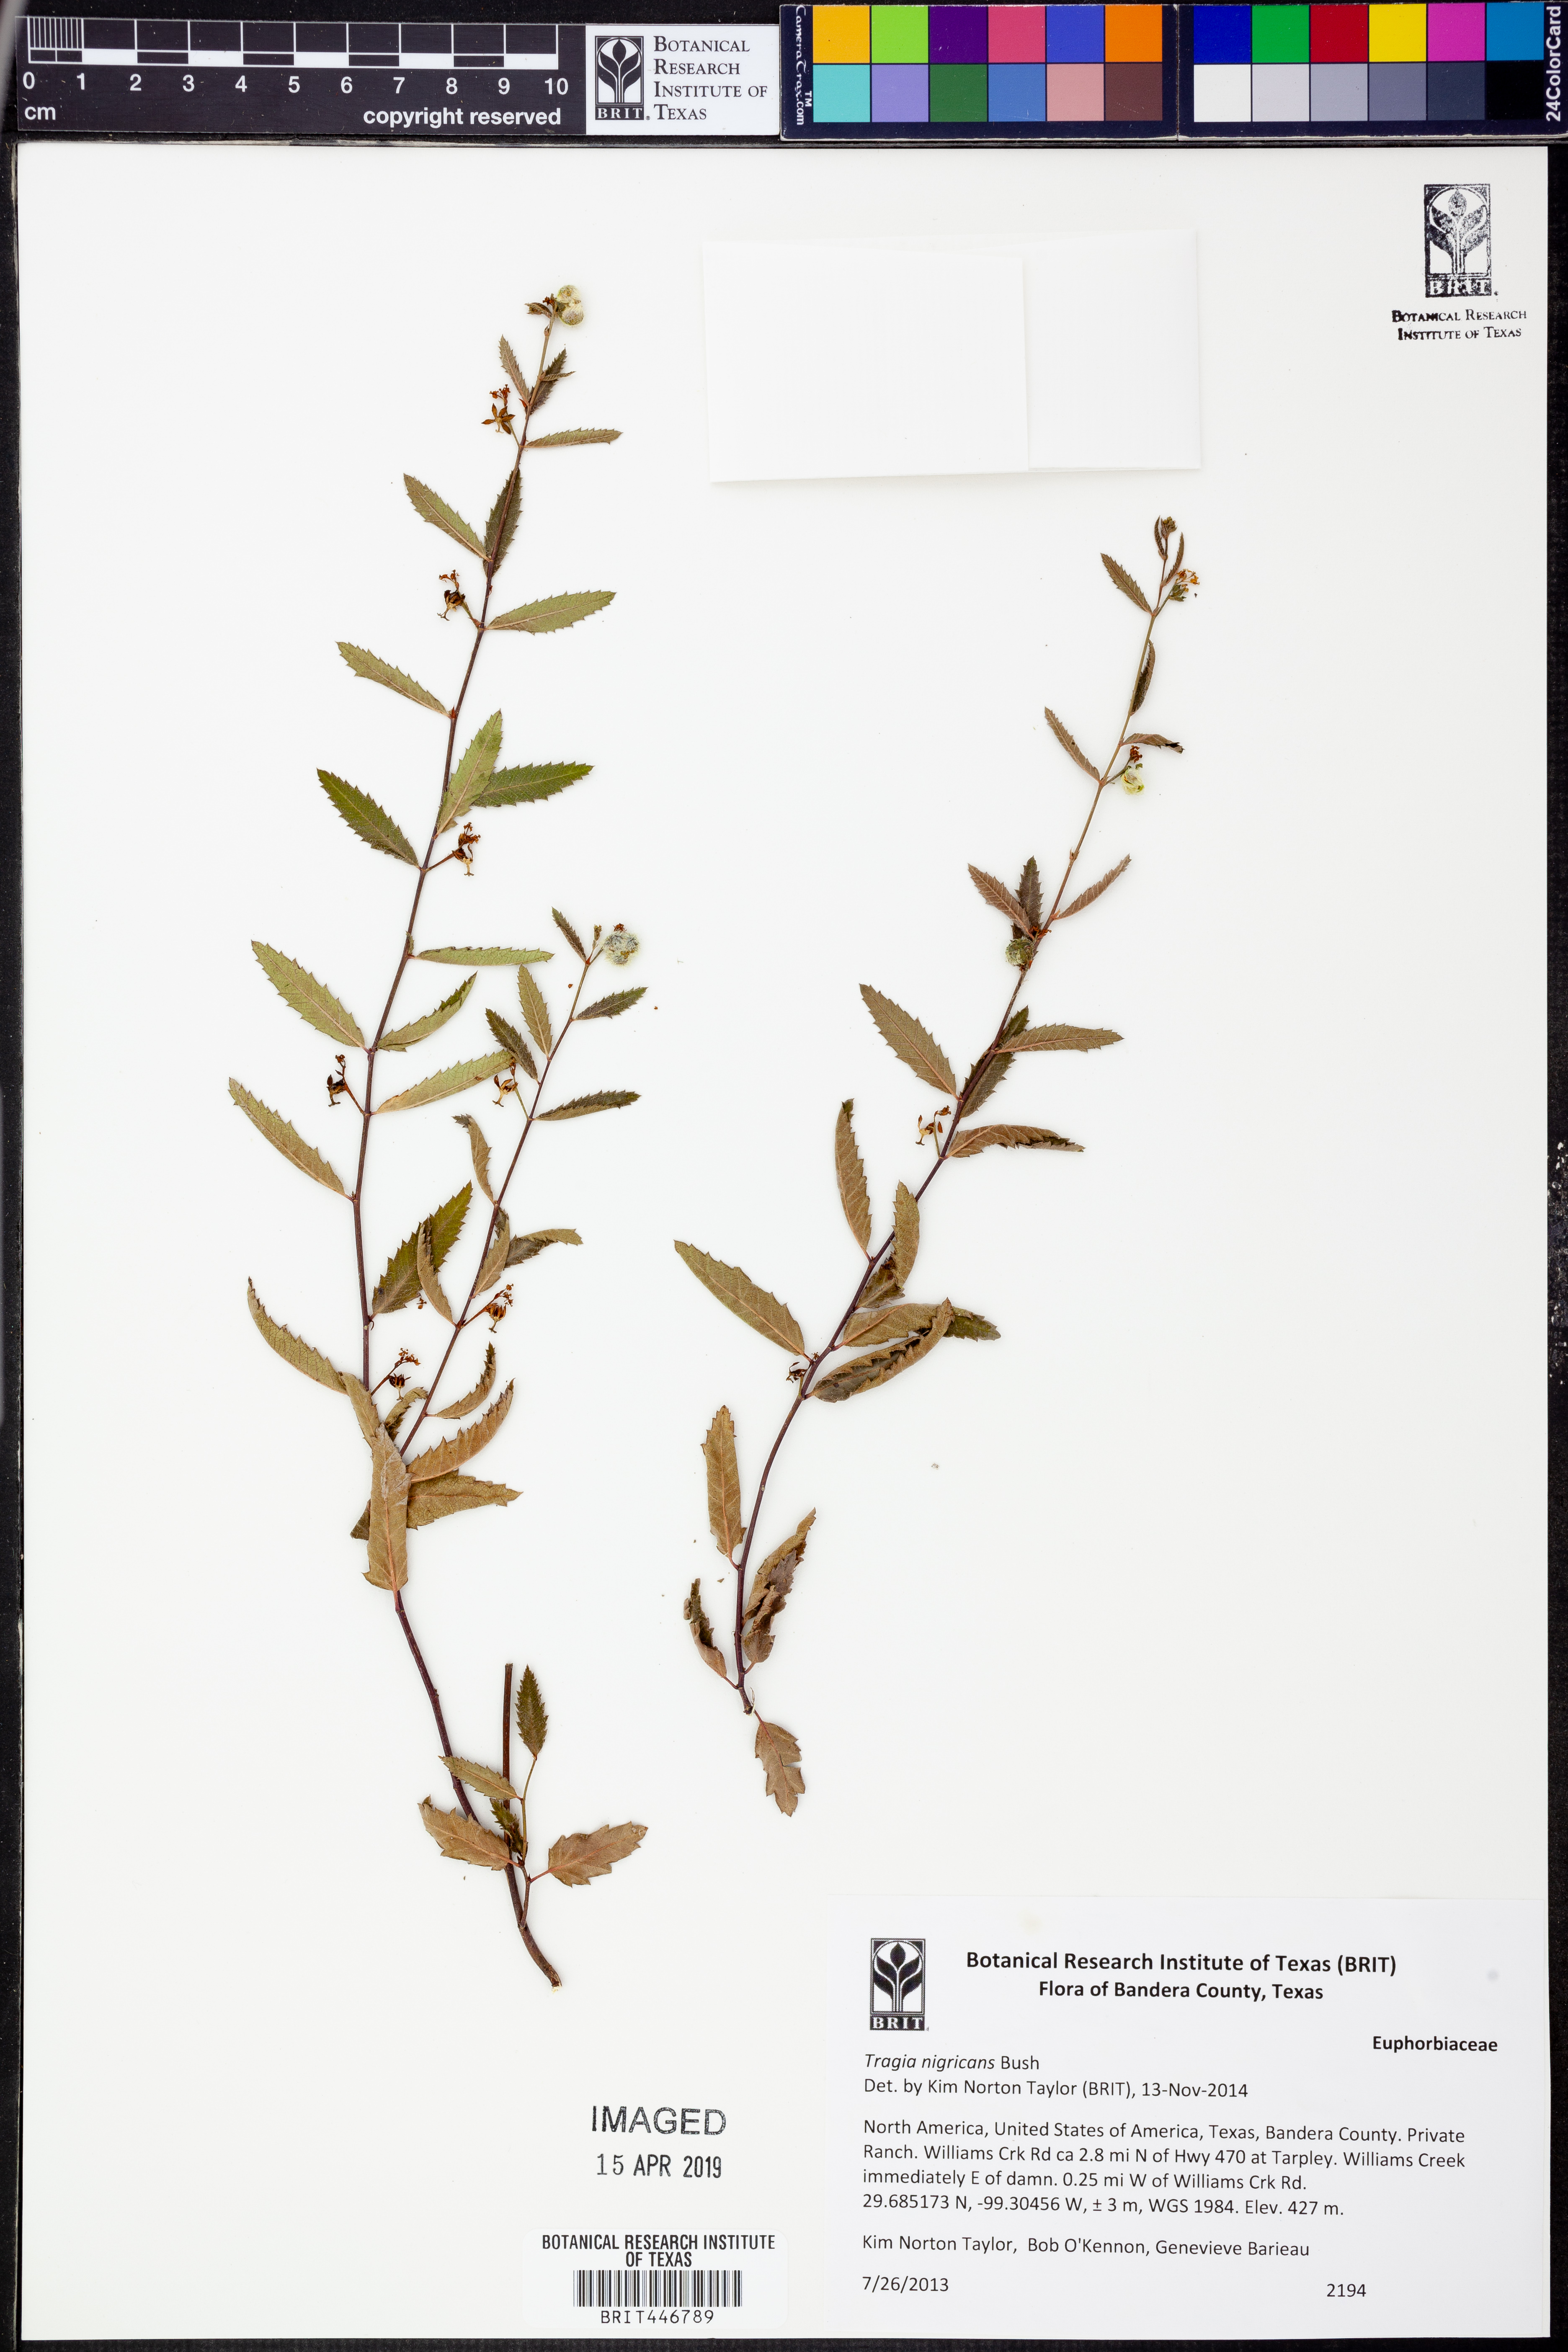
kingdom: Plantae
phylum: Tracheophyta
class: Magnoliopsida
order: Malpighiales
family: Euphorbiaceae
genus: Tragia
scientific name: Tragia nigricans
